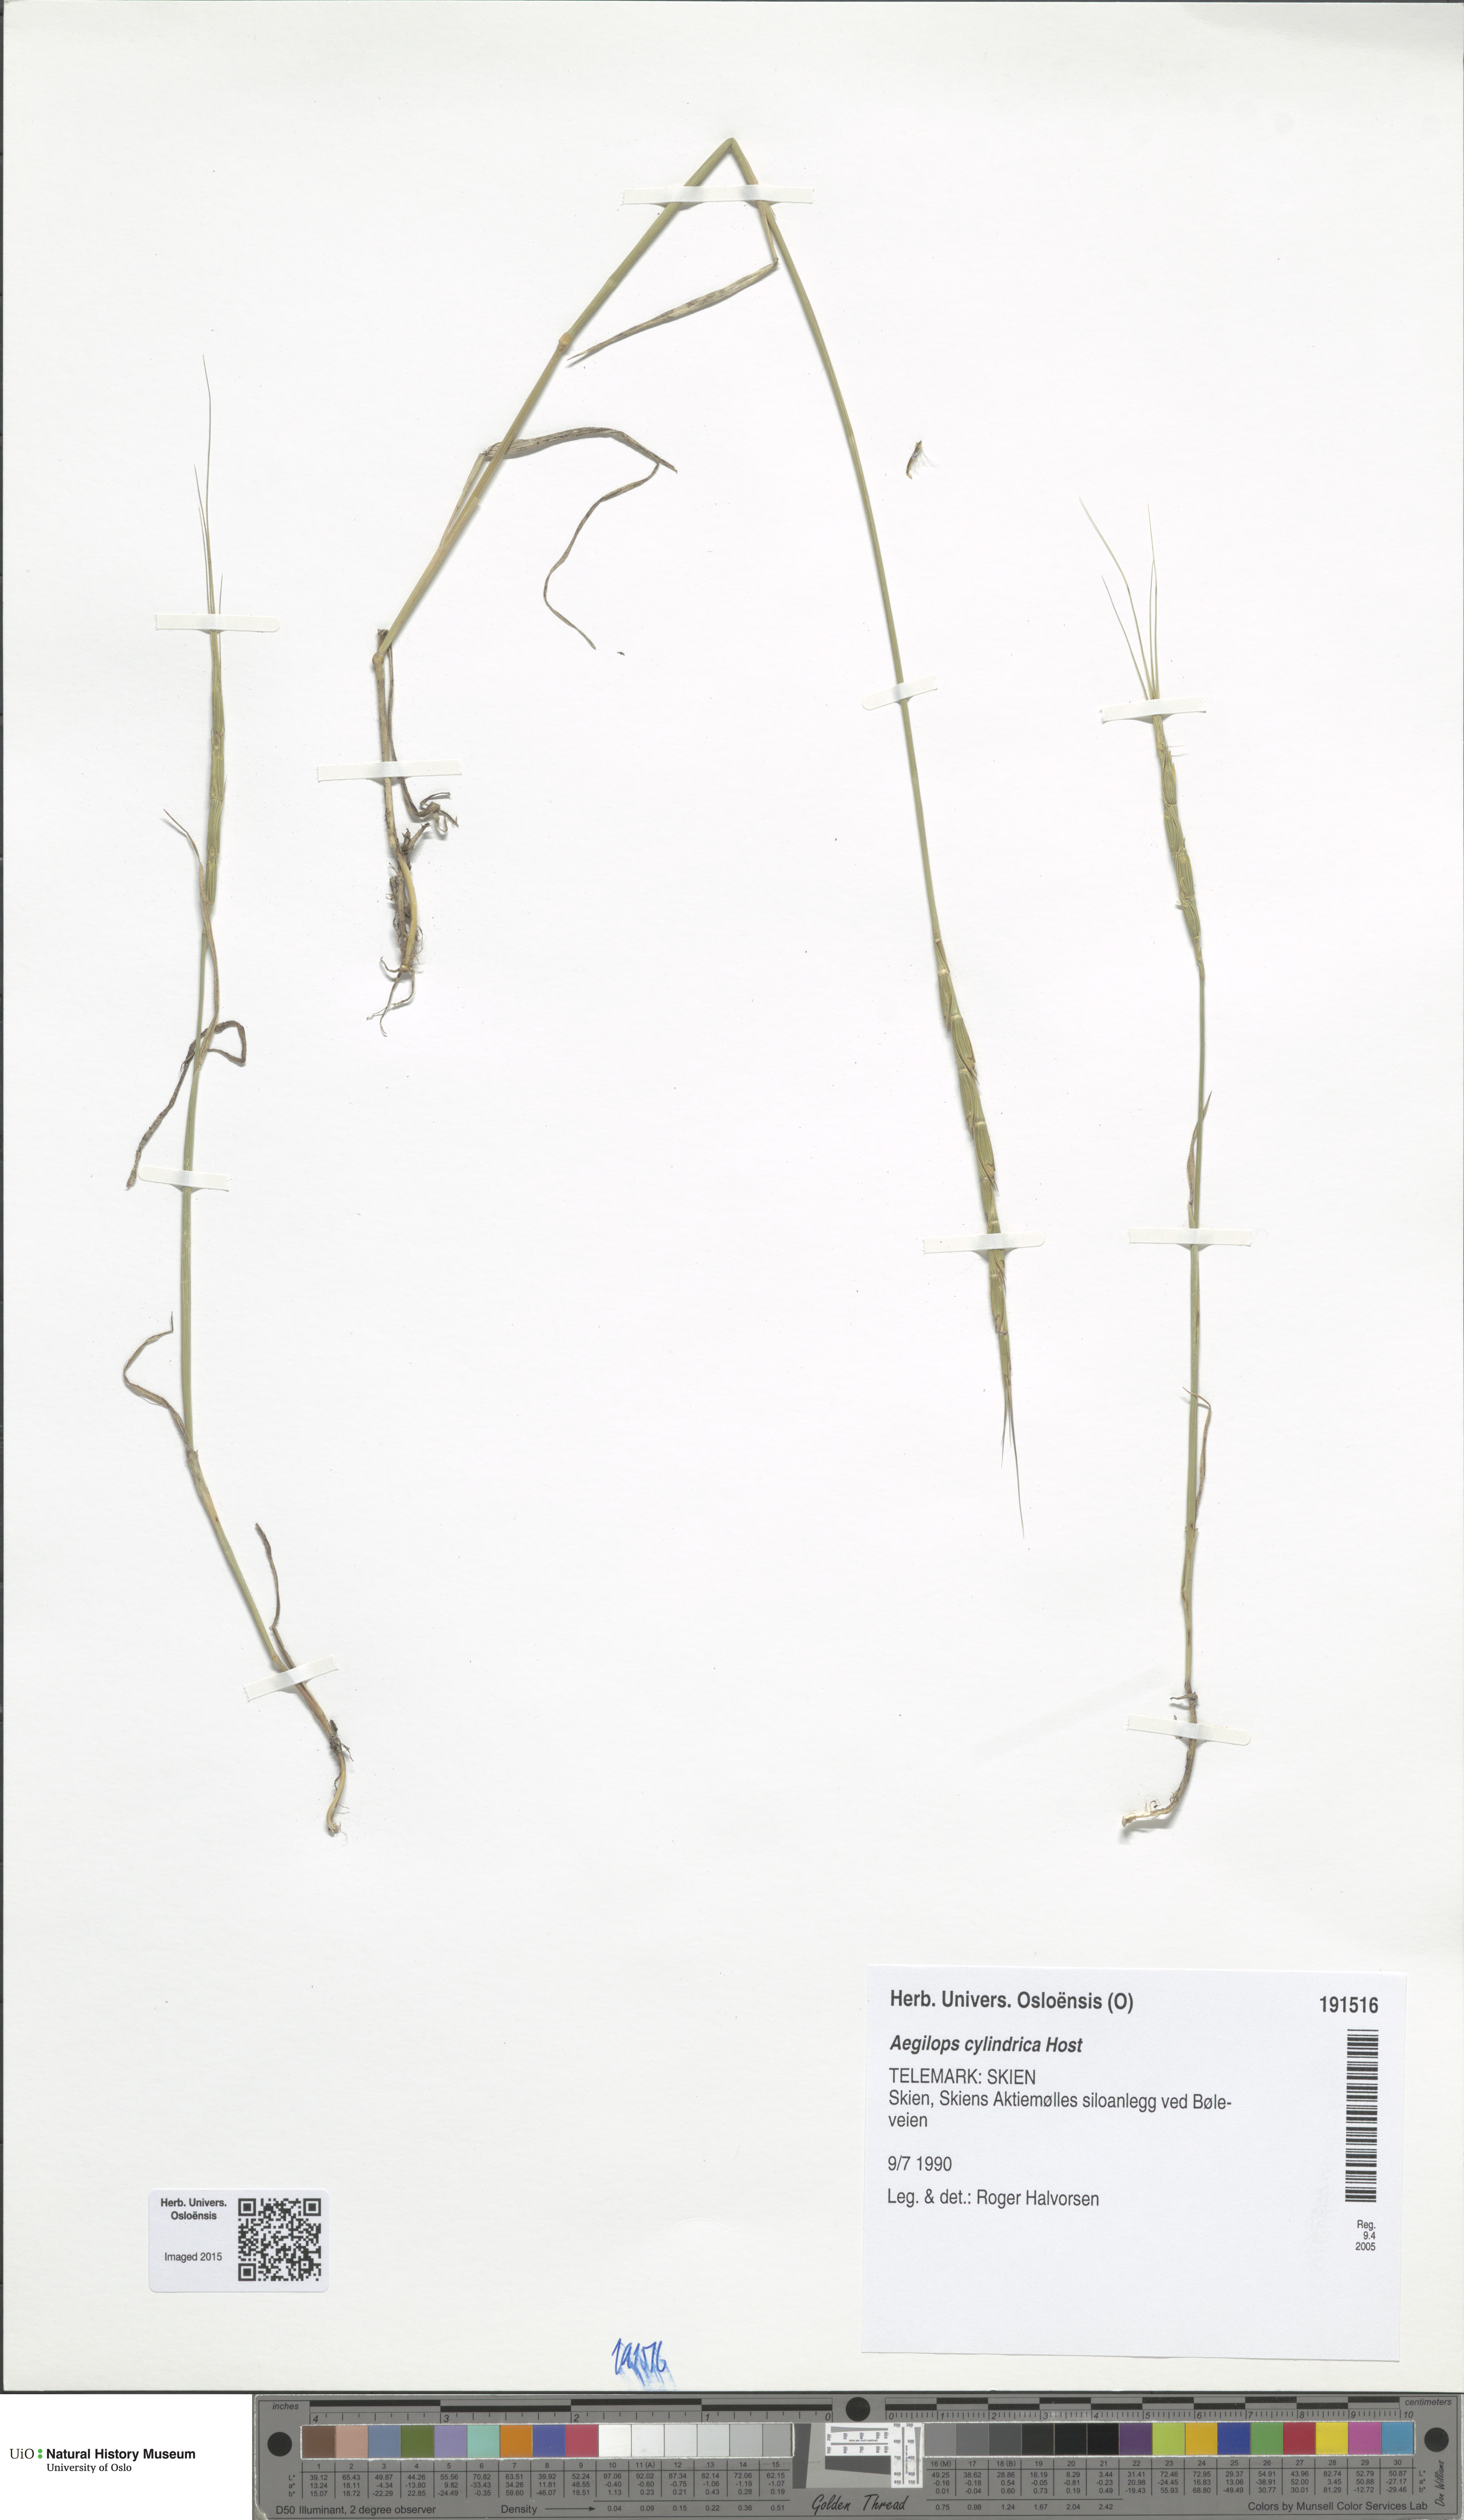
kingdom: Plantae
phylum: Tracheophyta
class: Liliopsida
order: Poales
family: Poaceae
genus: Aegilops
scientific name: Aegilops cylindrica
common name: Jointed goatgrass
